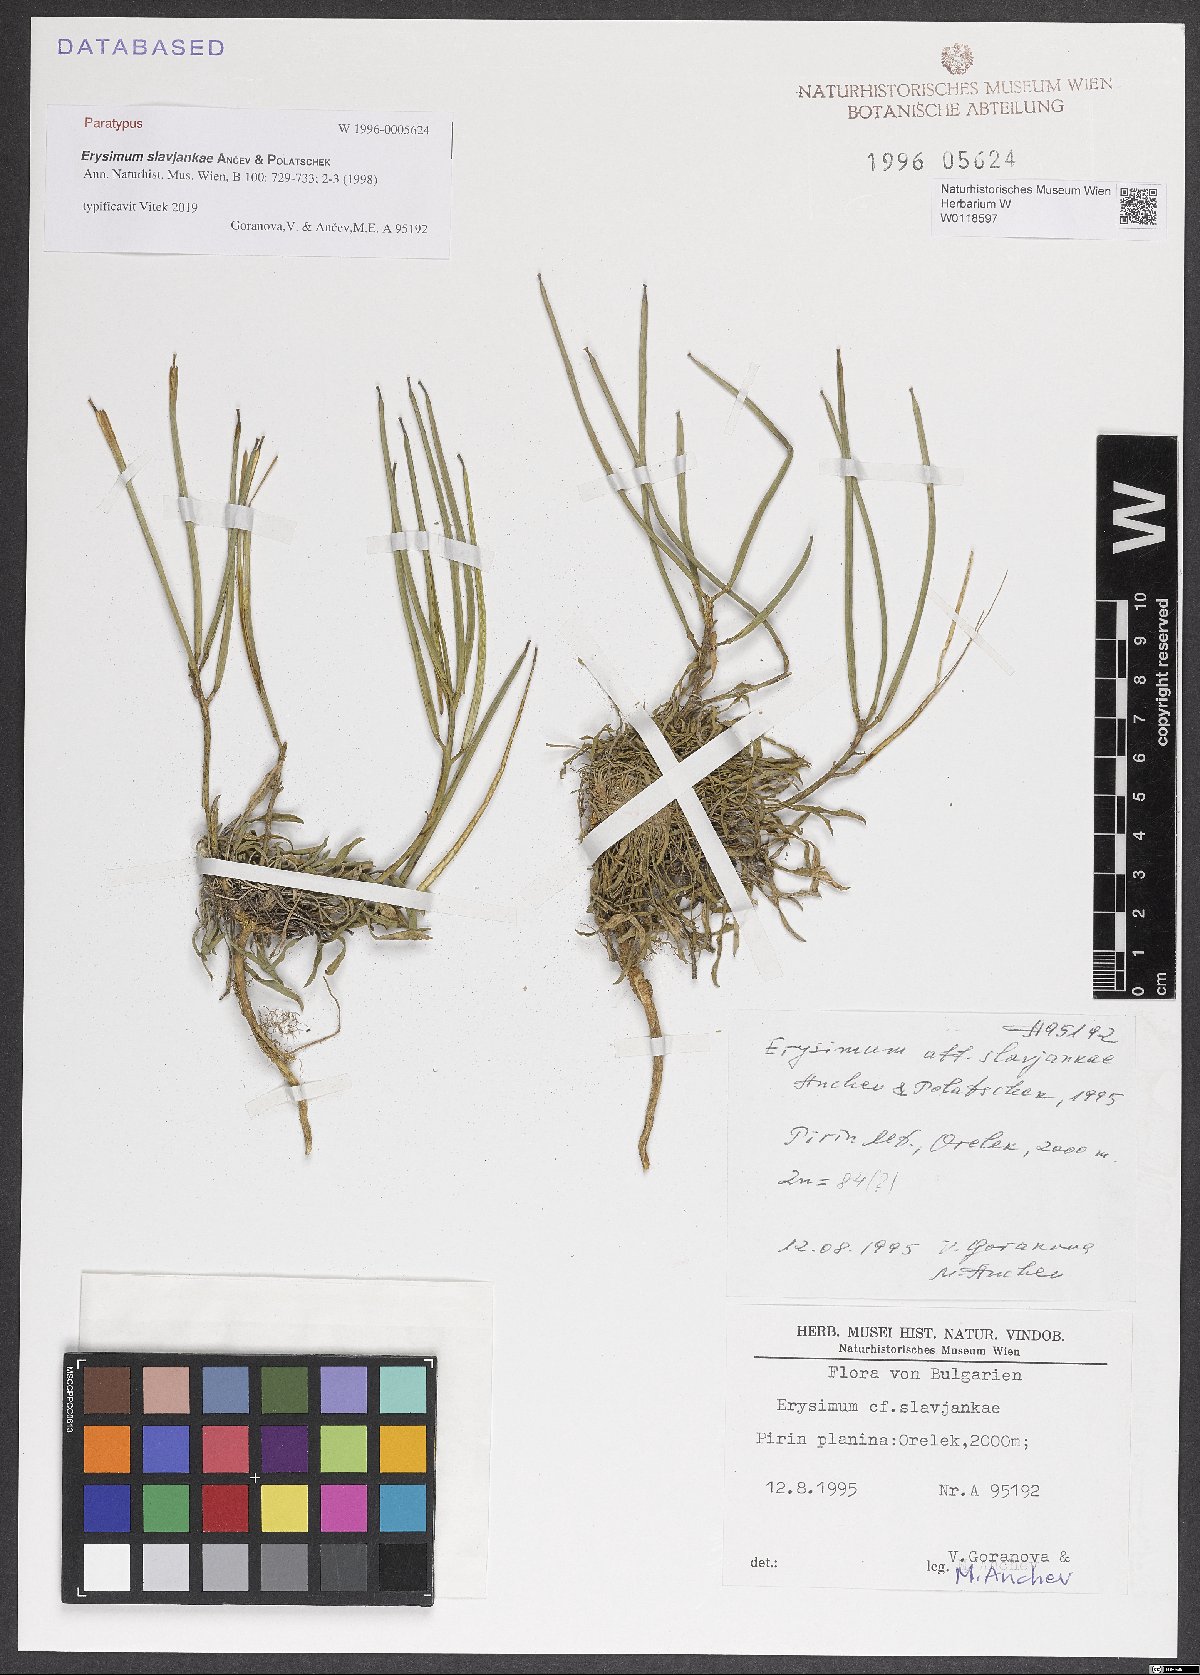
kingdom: Plantae
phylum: Tracheophyta
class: Magnoliopsida
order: Brassicales
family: Brassicaceae
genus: Erysimum
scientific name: Erysimum slavjankae
